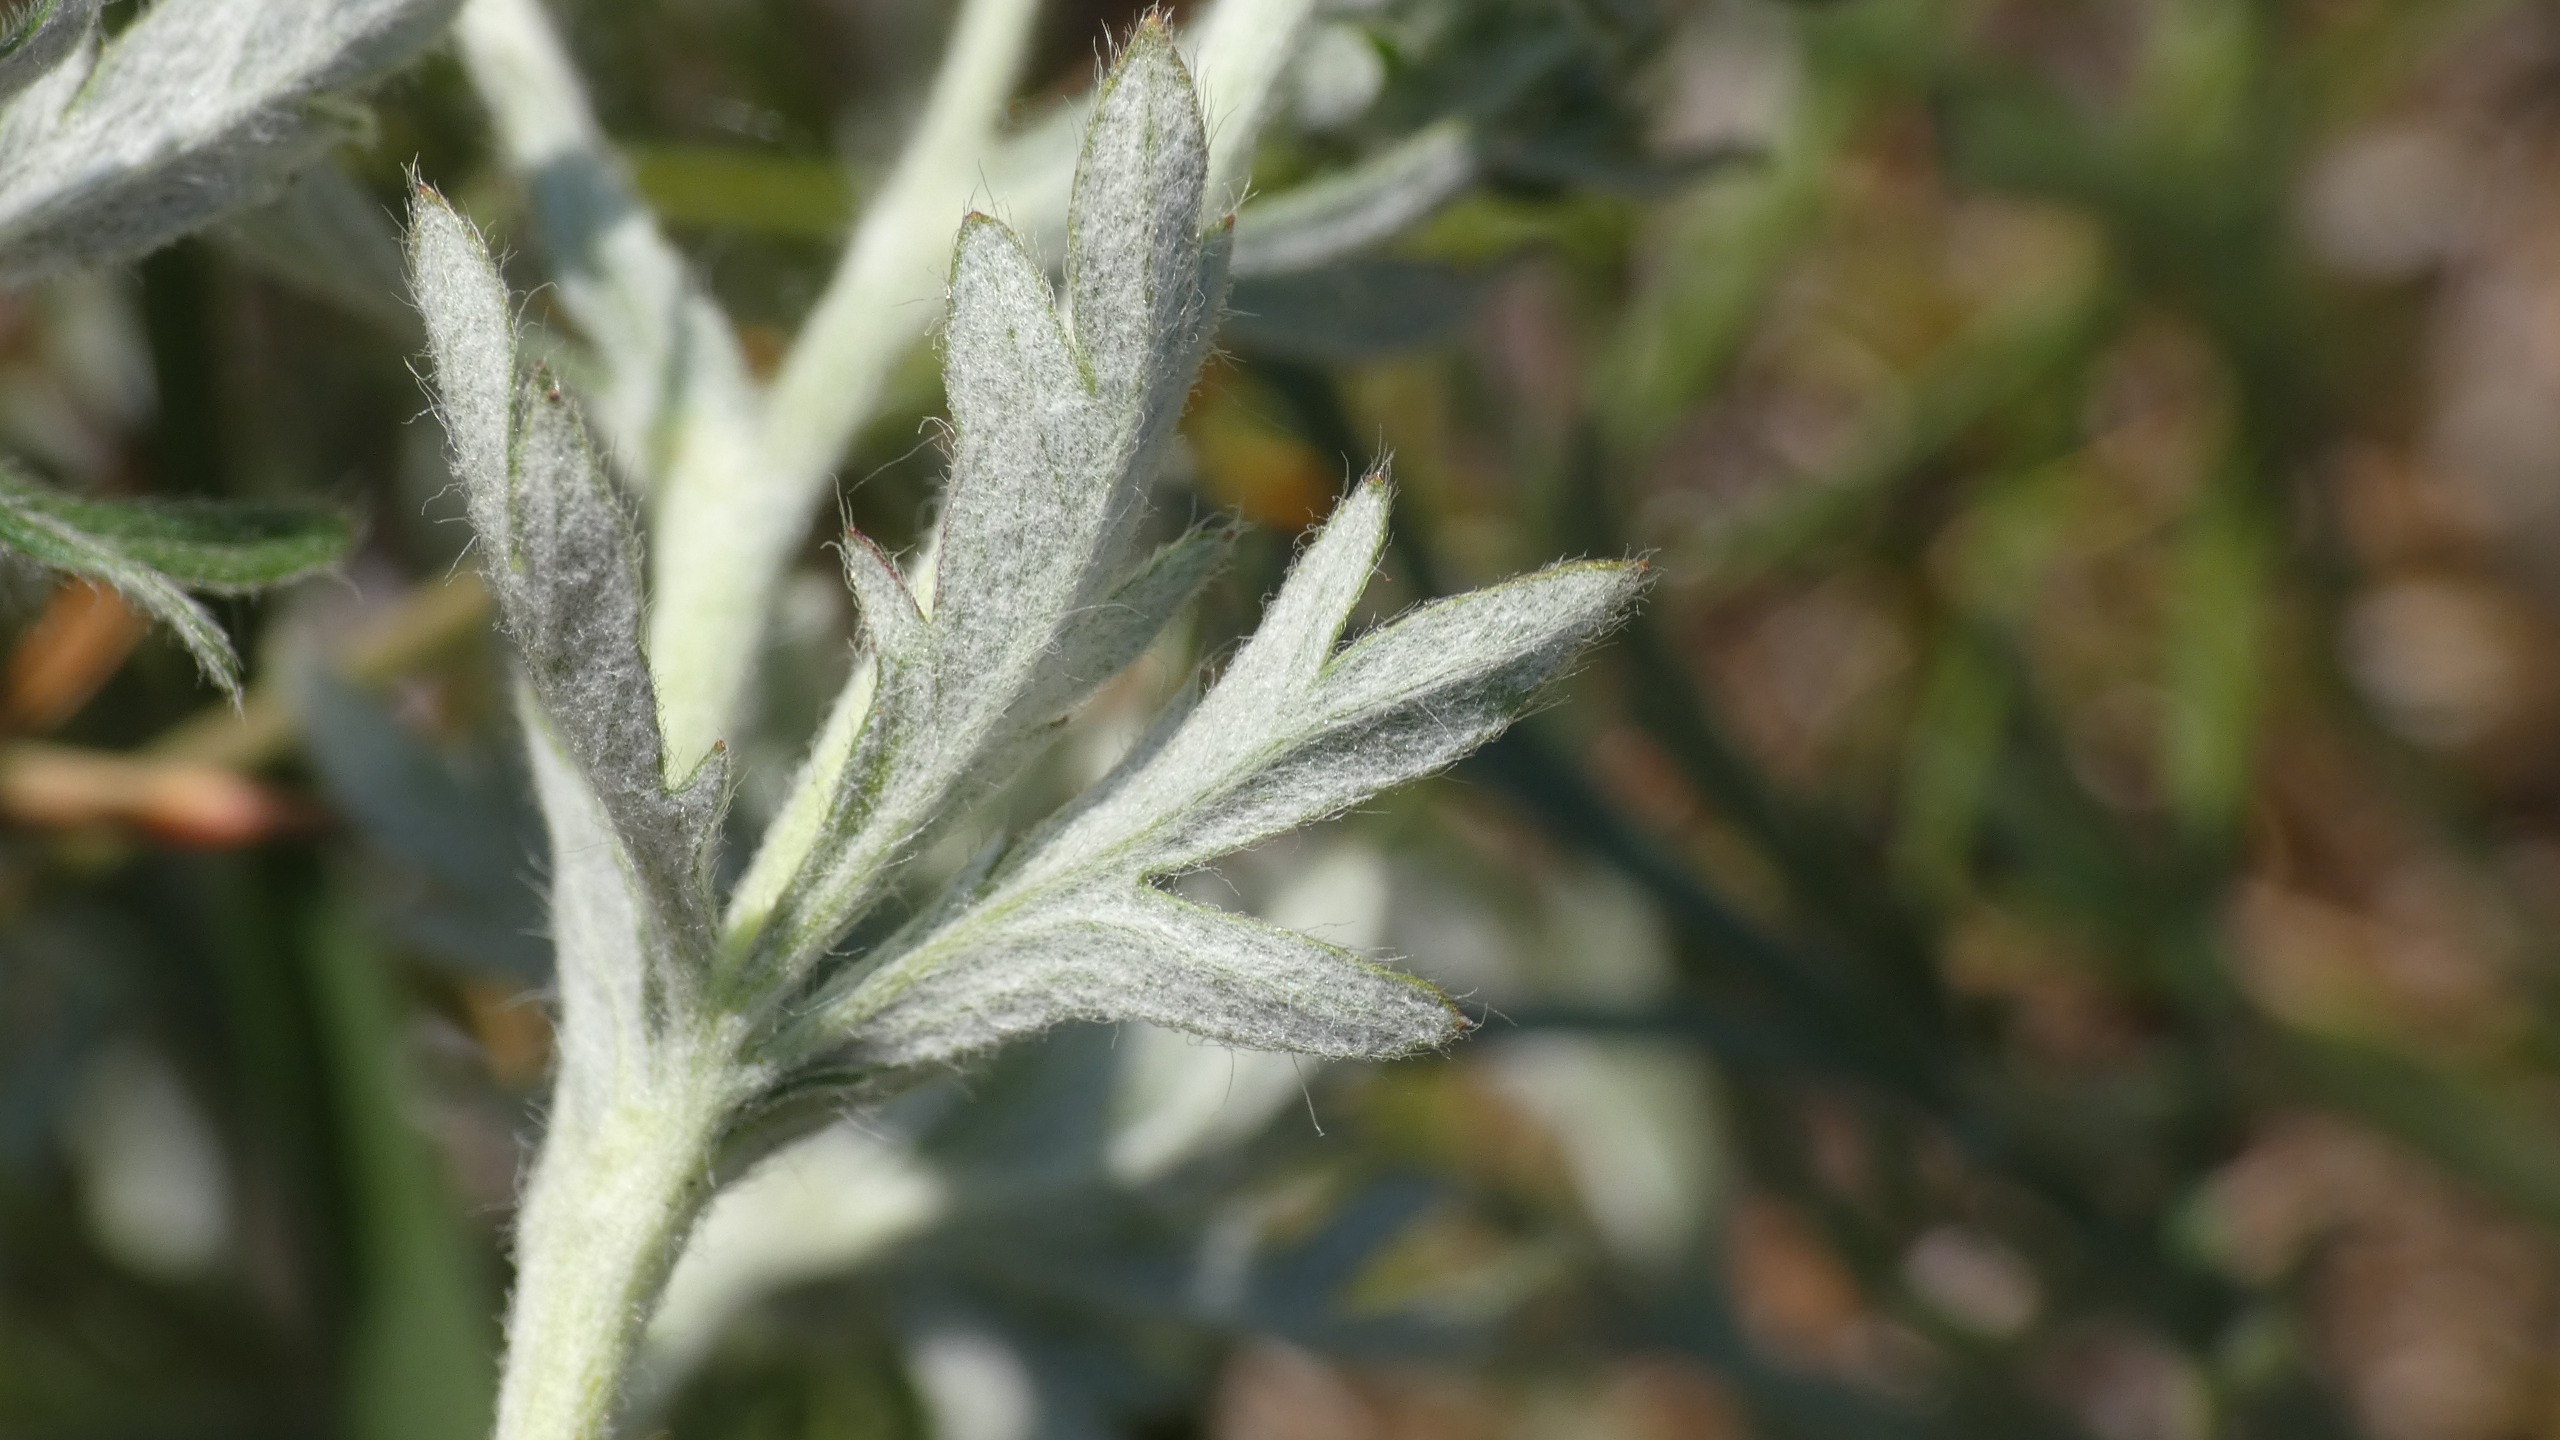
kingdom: Plantae
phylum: Tracheophyta
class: Magnoliopsida
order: Rosales
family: Rosaceae
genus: Potentilla
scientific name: Potentilla argentea
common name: Sølv-potentil
